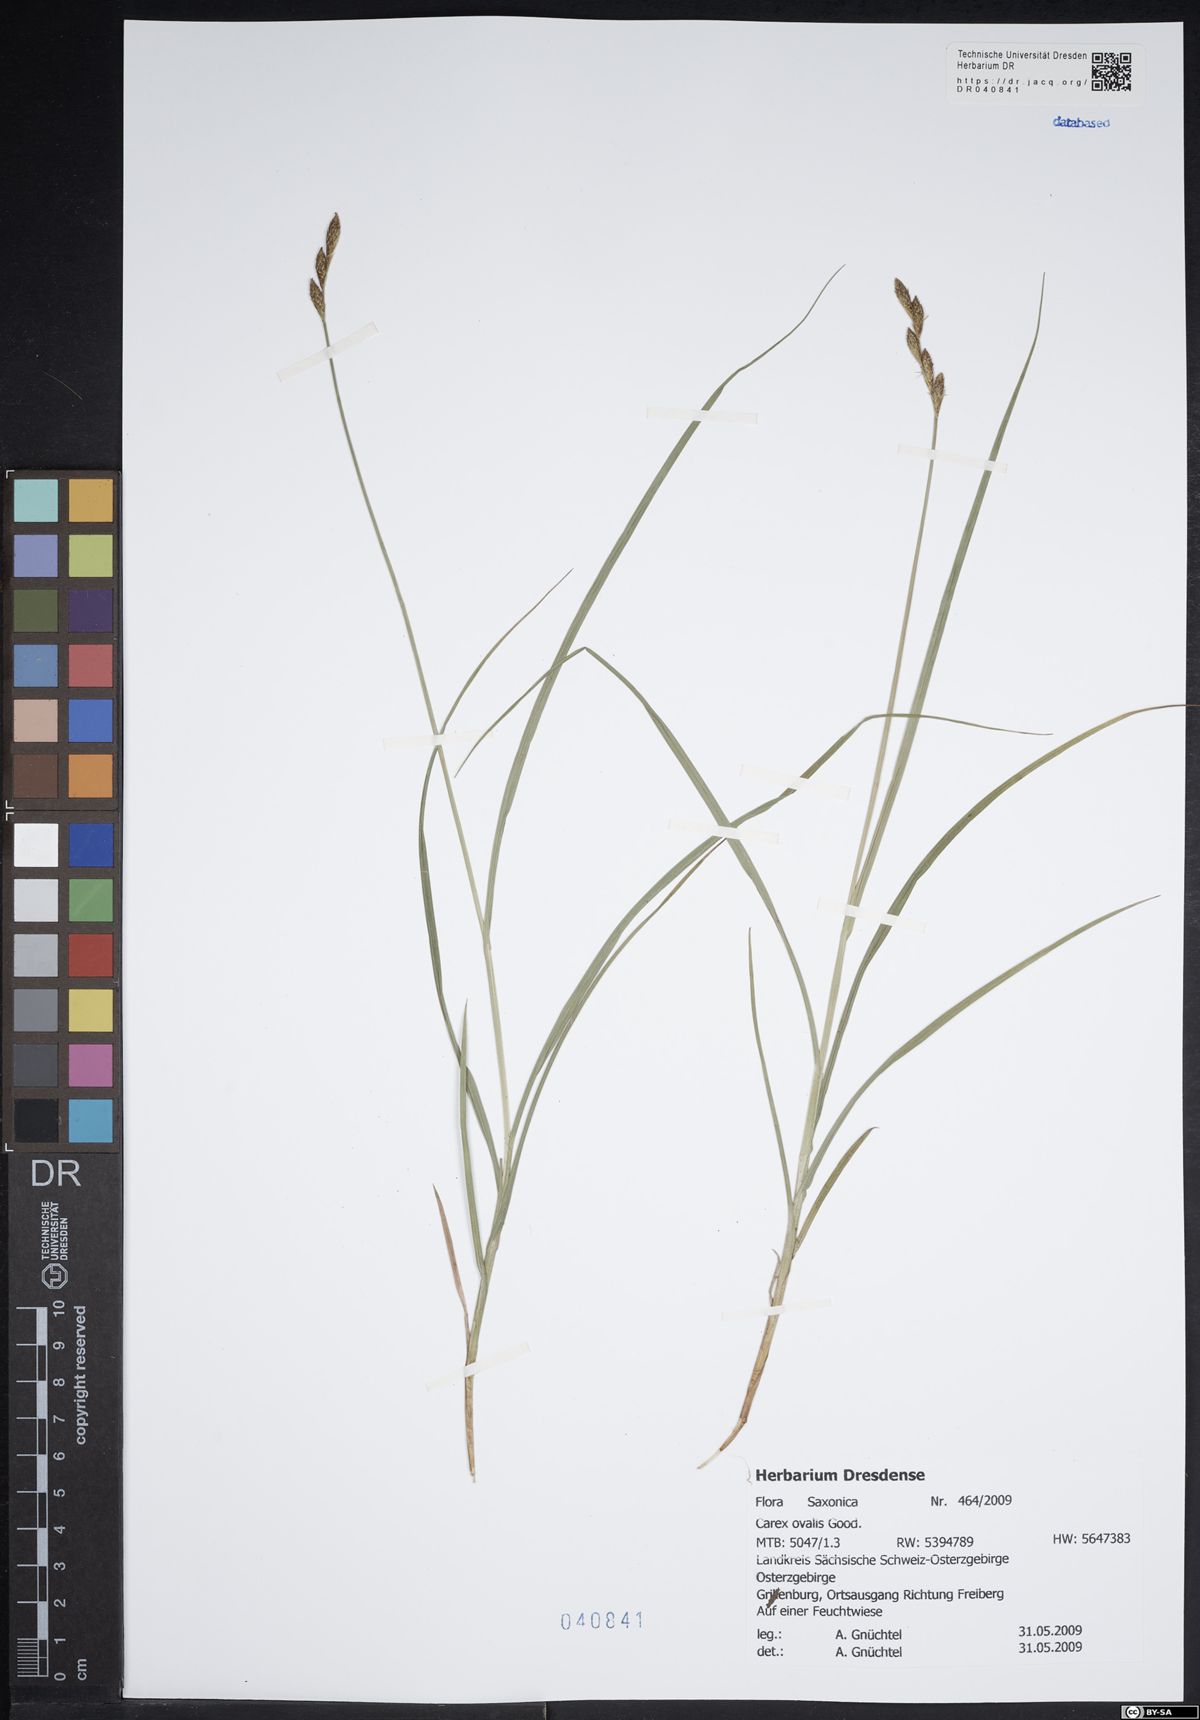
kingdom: Plantae
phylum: Tracheophyta
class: Liliopsida
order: Poales
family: Cyperaceae
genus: Carex
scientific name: Carex leporina
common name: Oval sedge
